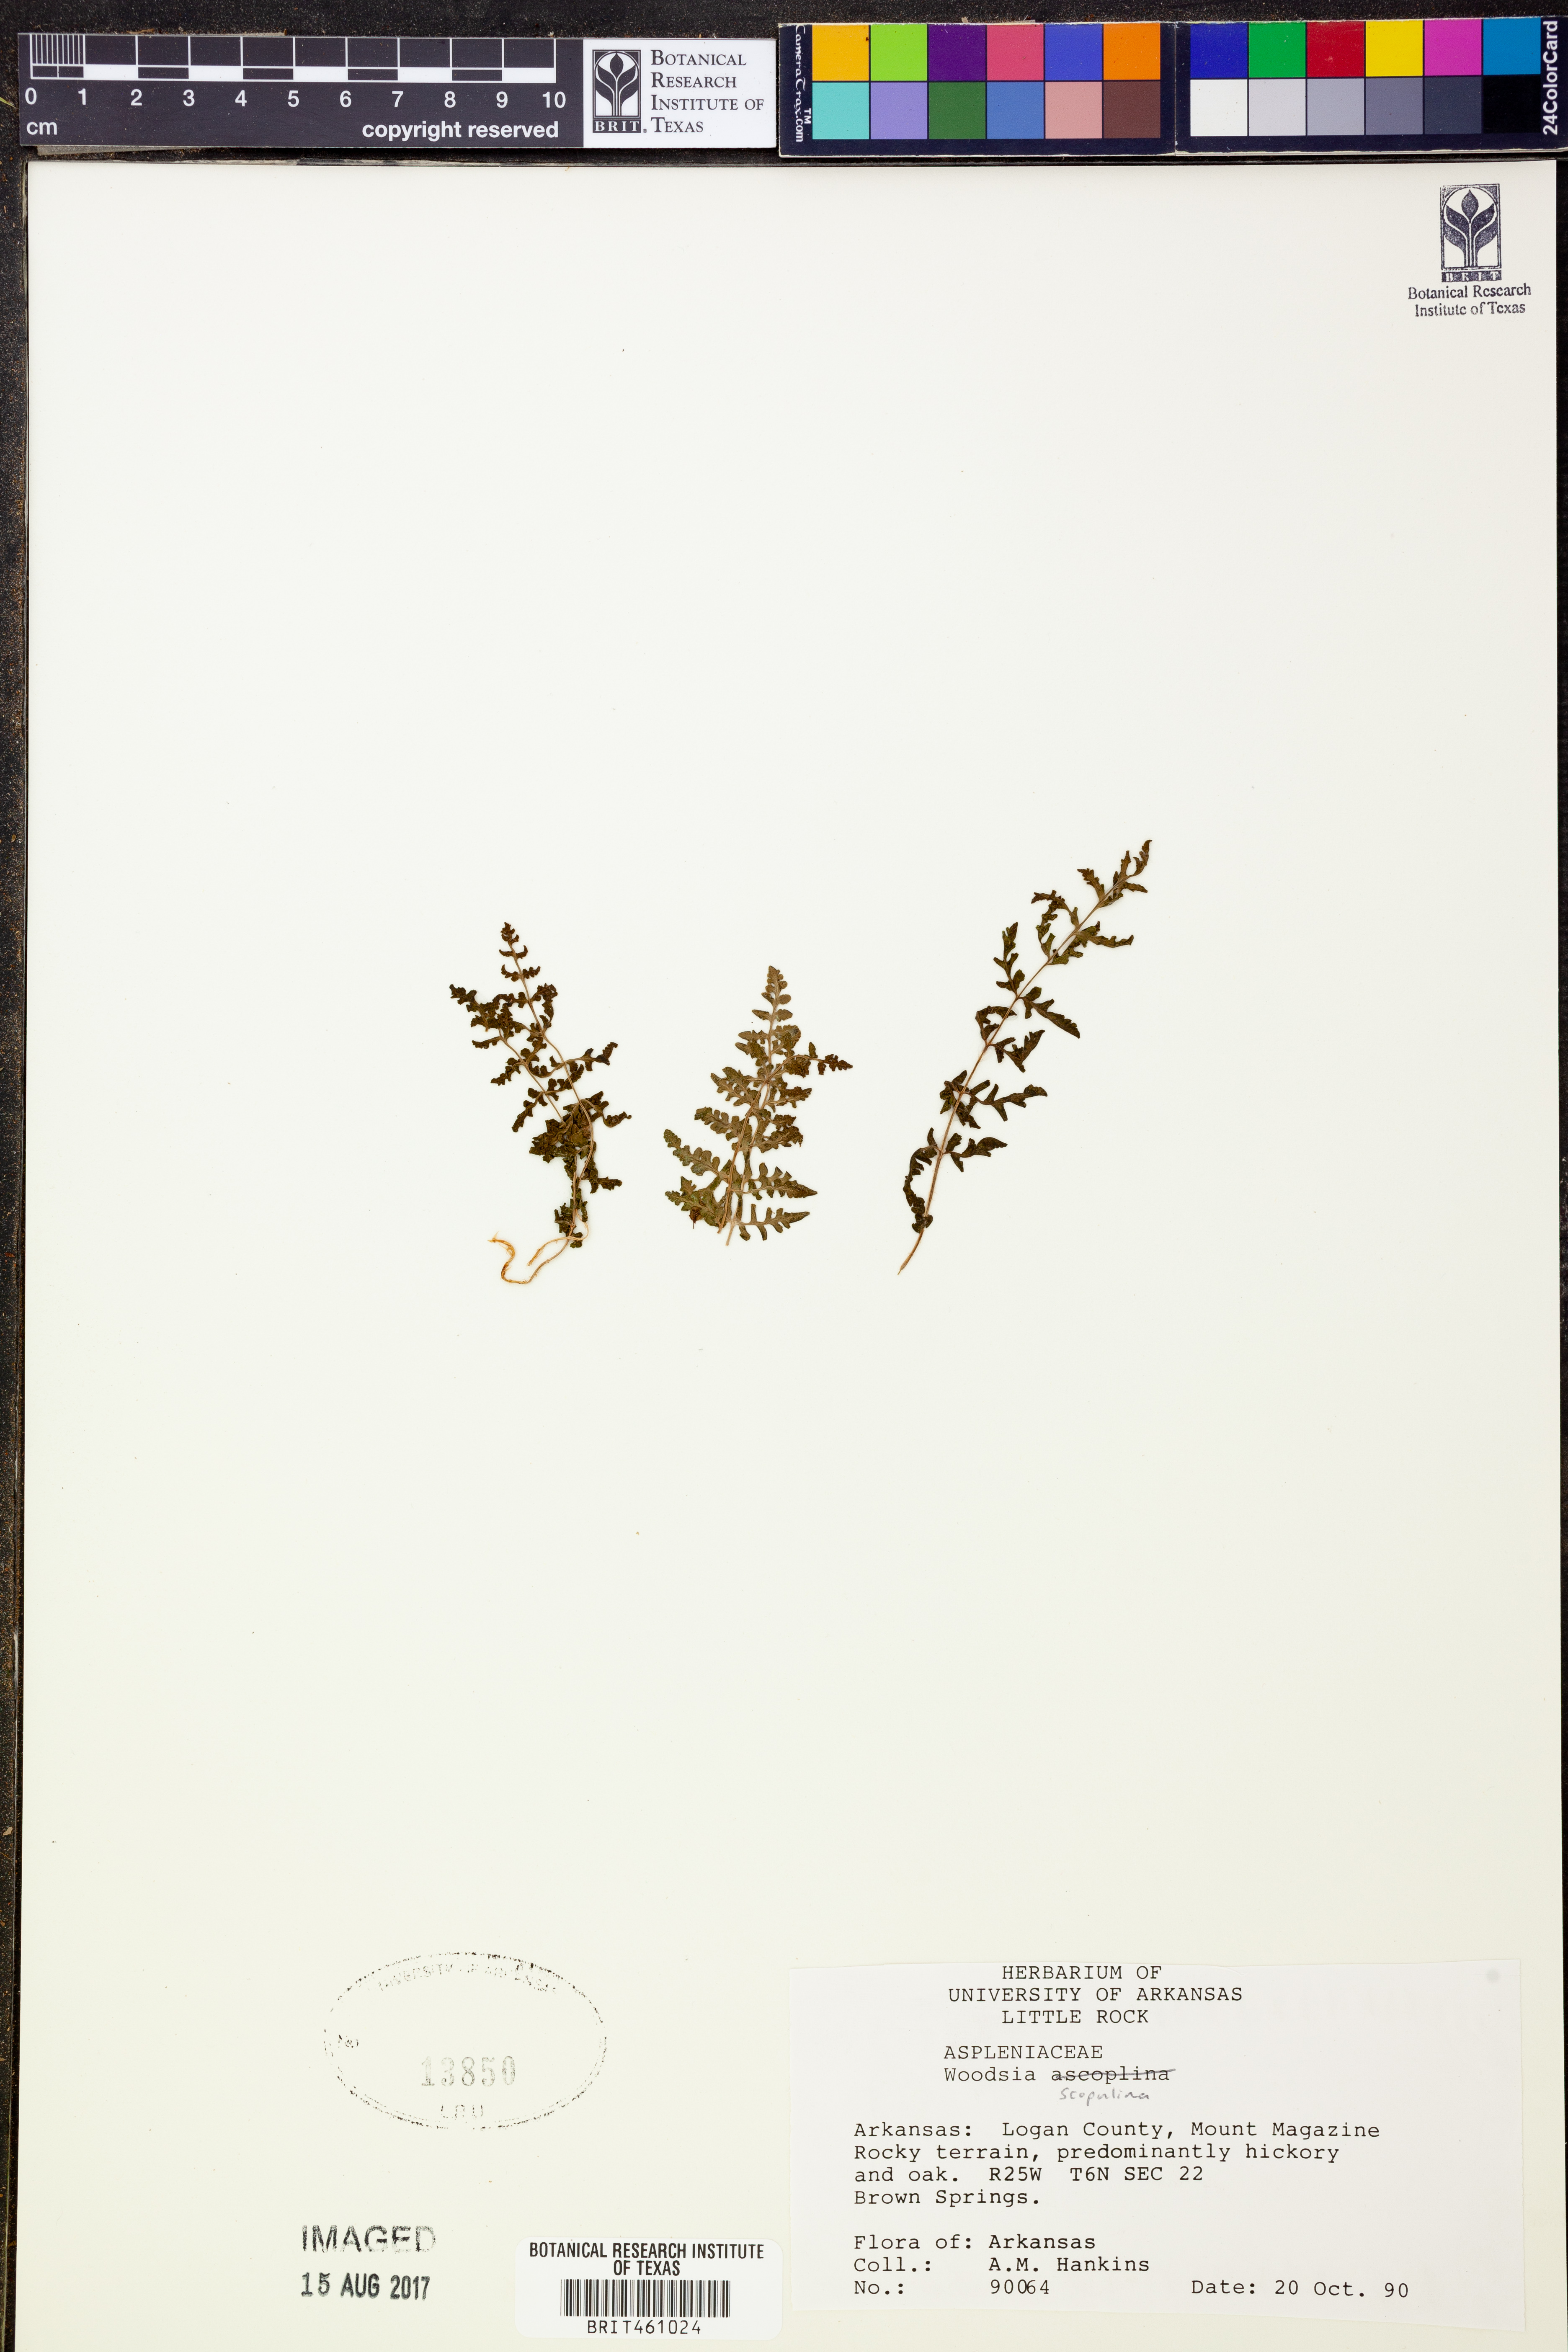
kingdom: Plantae
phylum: Tracheophyta
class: Polypodiopsida
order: Polypodiales
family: Woodsiaceae
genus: Physematium
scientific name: Physematium scopulinum
